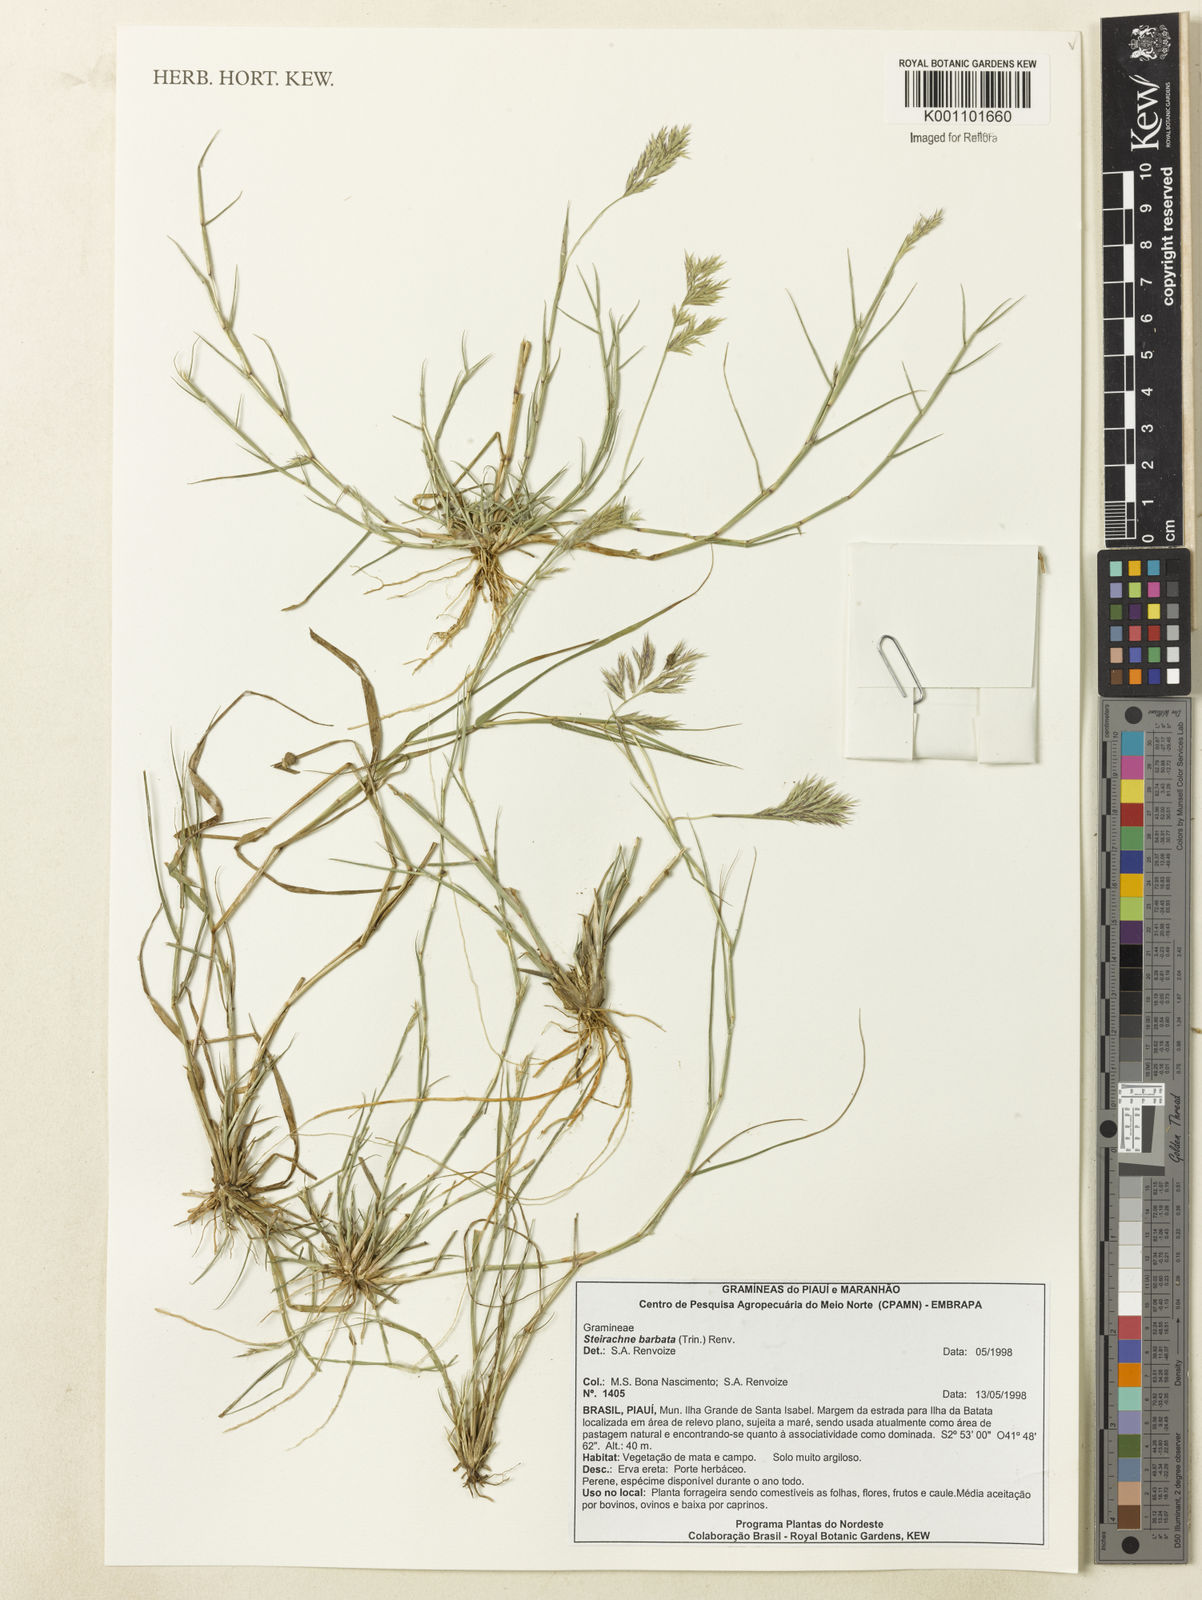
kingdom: Plantae
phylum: Tracheophyta
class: Liliopsida
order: Poales
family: Poaceae
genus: Steirachne
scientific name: Steirachne barbata
